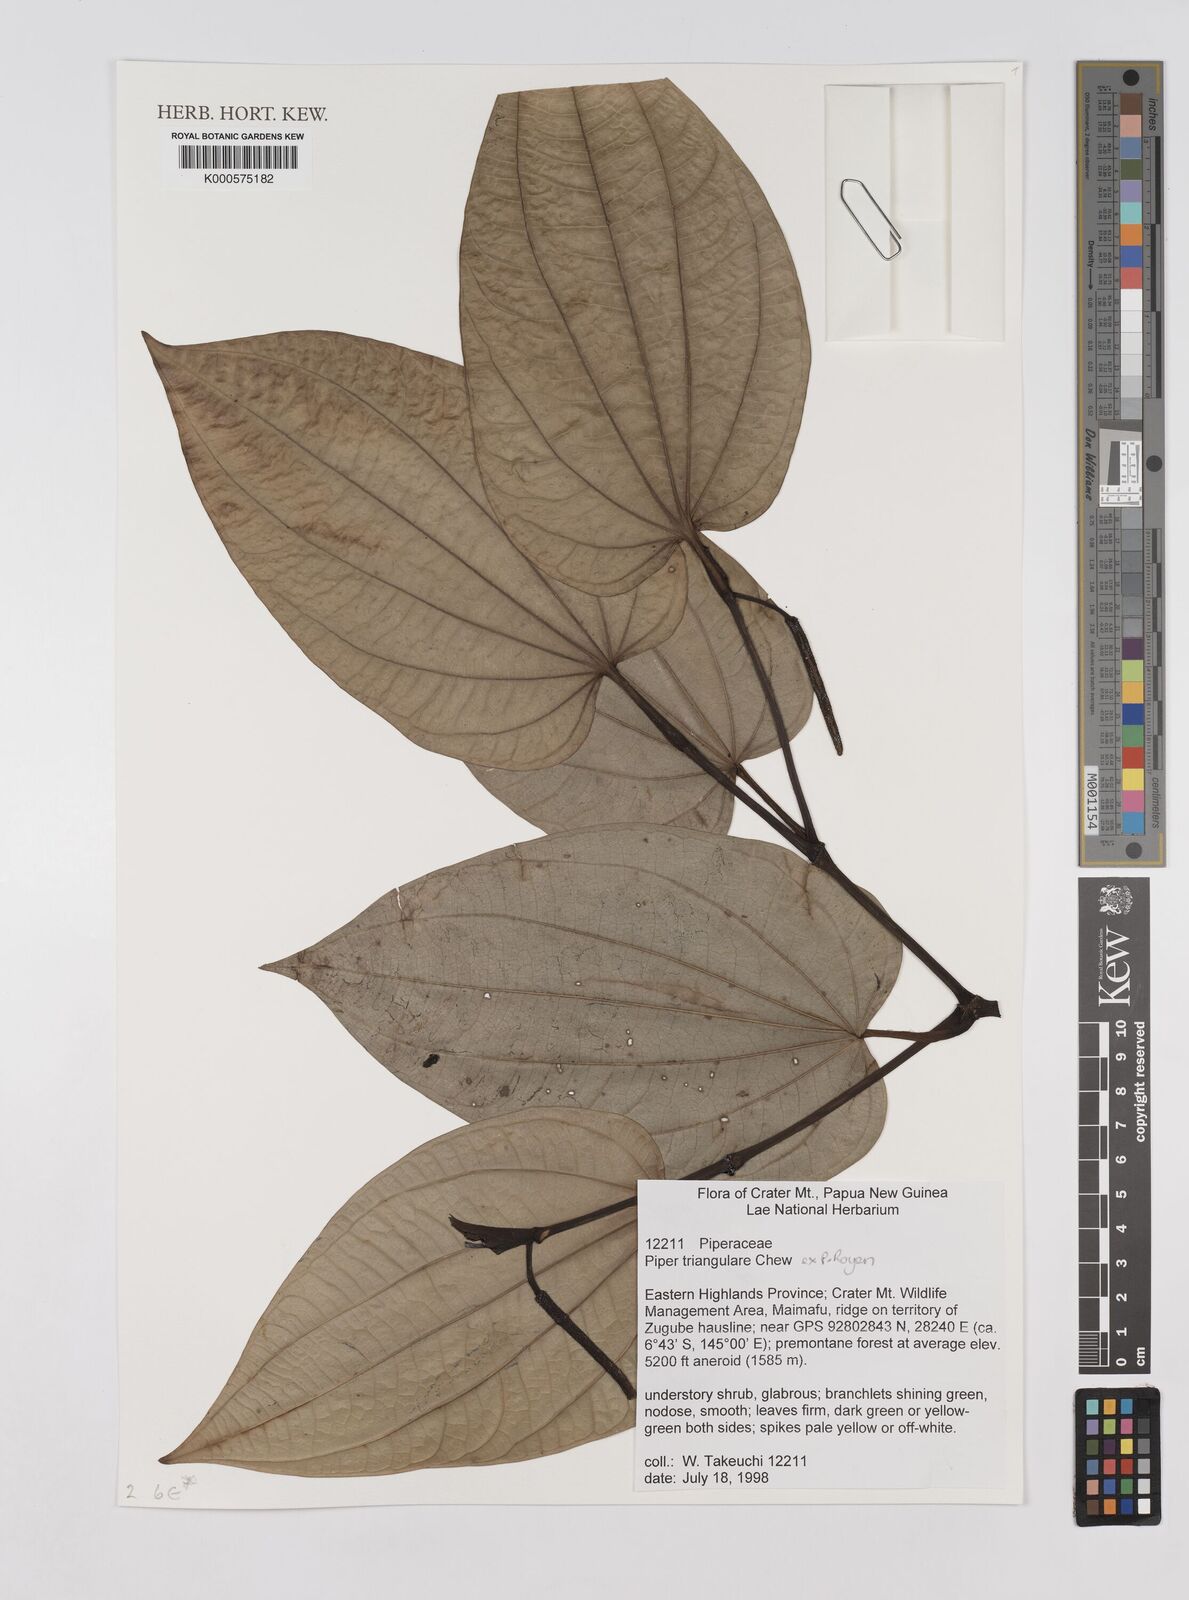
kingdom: Plantae
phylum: Tracheophyta
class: Magnoliopsida
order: Piperales
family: Piperaceae
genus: Piper
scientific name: Piper triangulare
